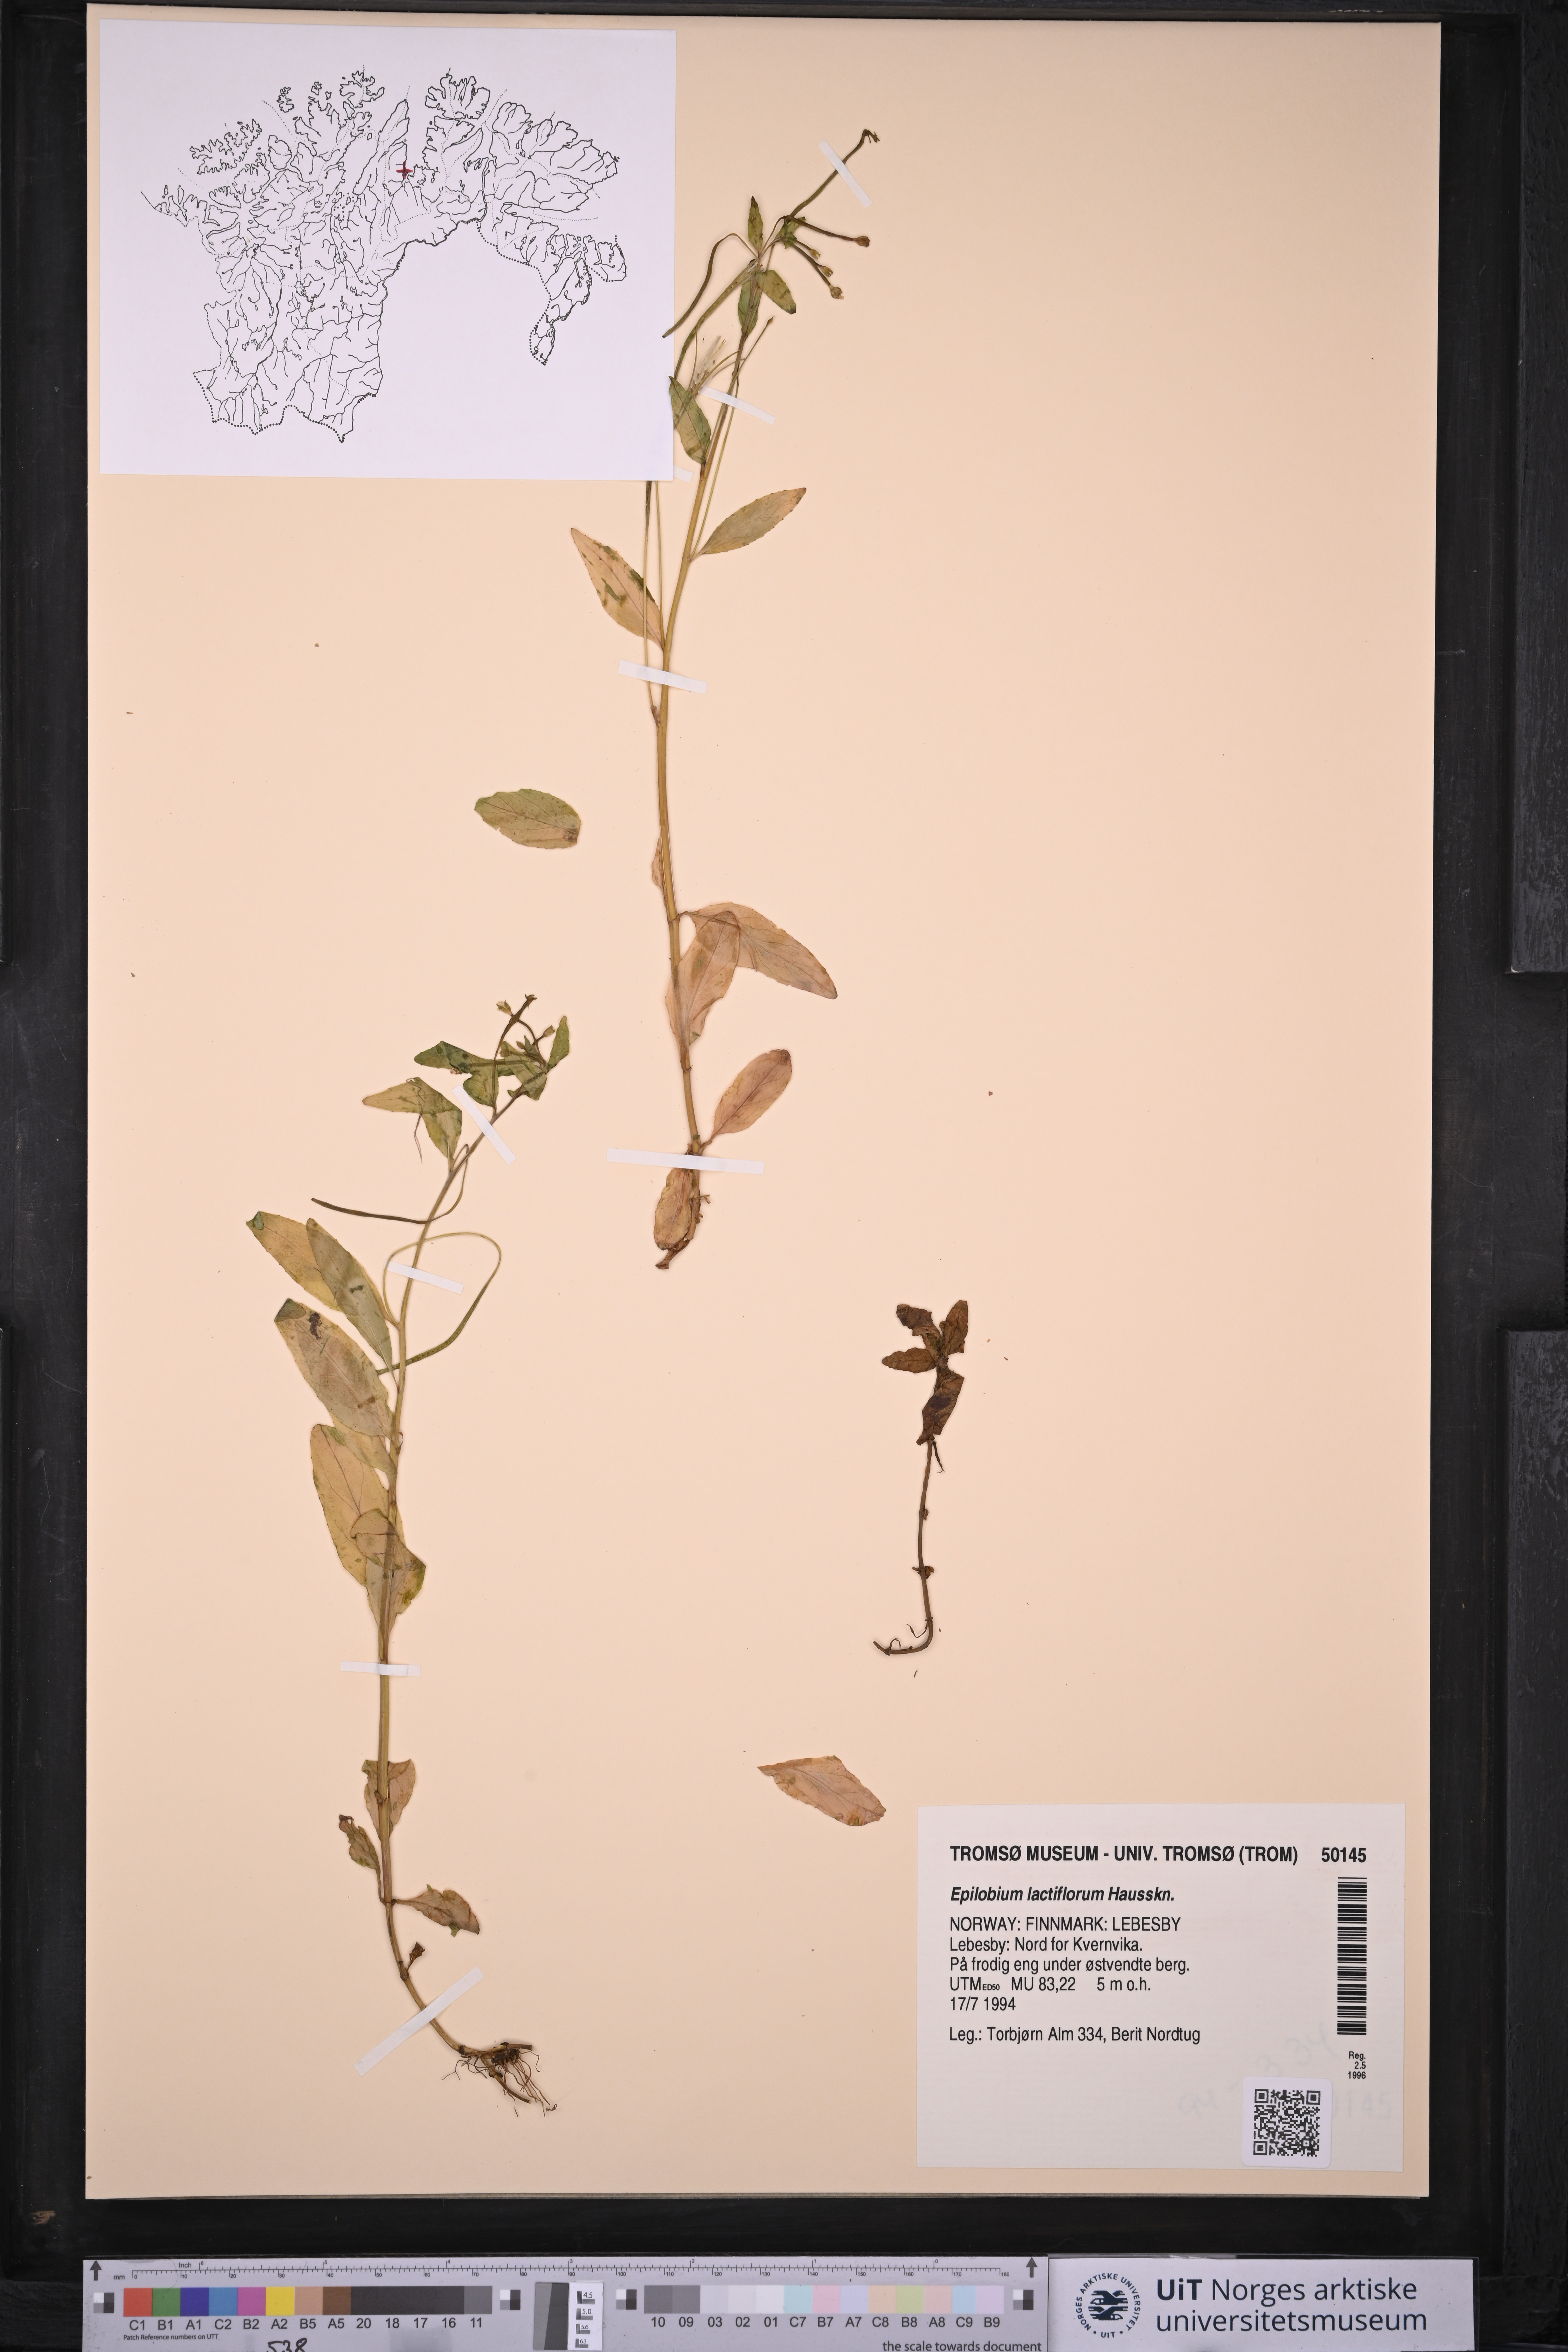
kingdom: Plantae
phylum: Tracheophyta
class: Magnoliopsida
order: Myrtales
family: Onagraceae
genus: Epilobium
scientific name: Epilobium lactiflorum
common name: Milkflower willowherb
